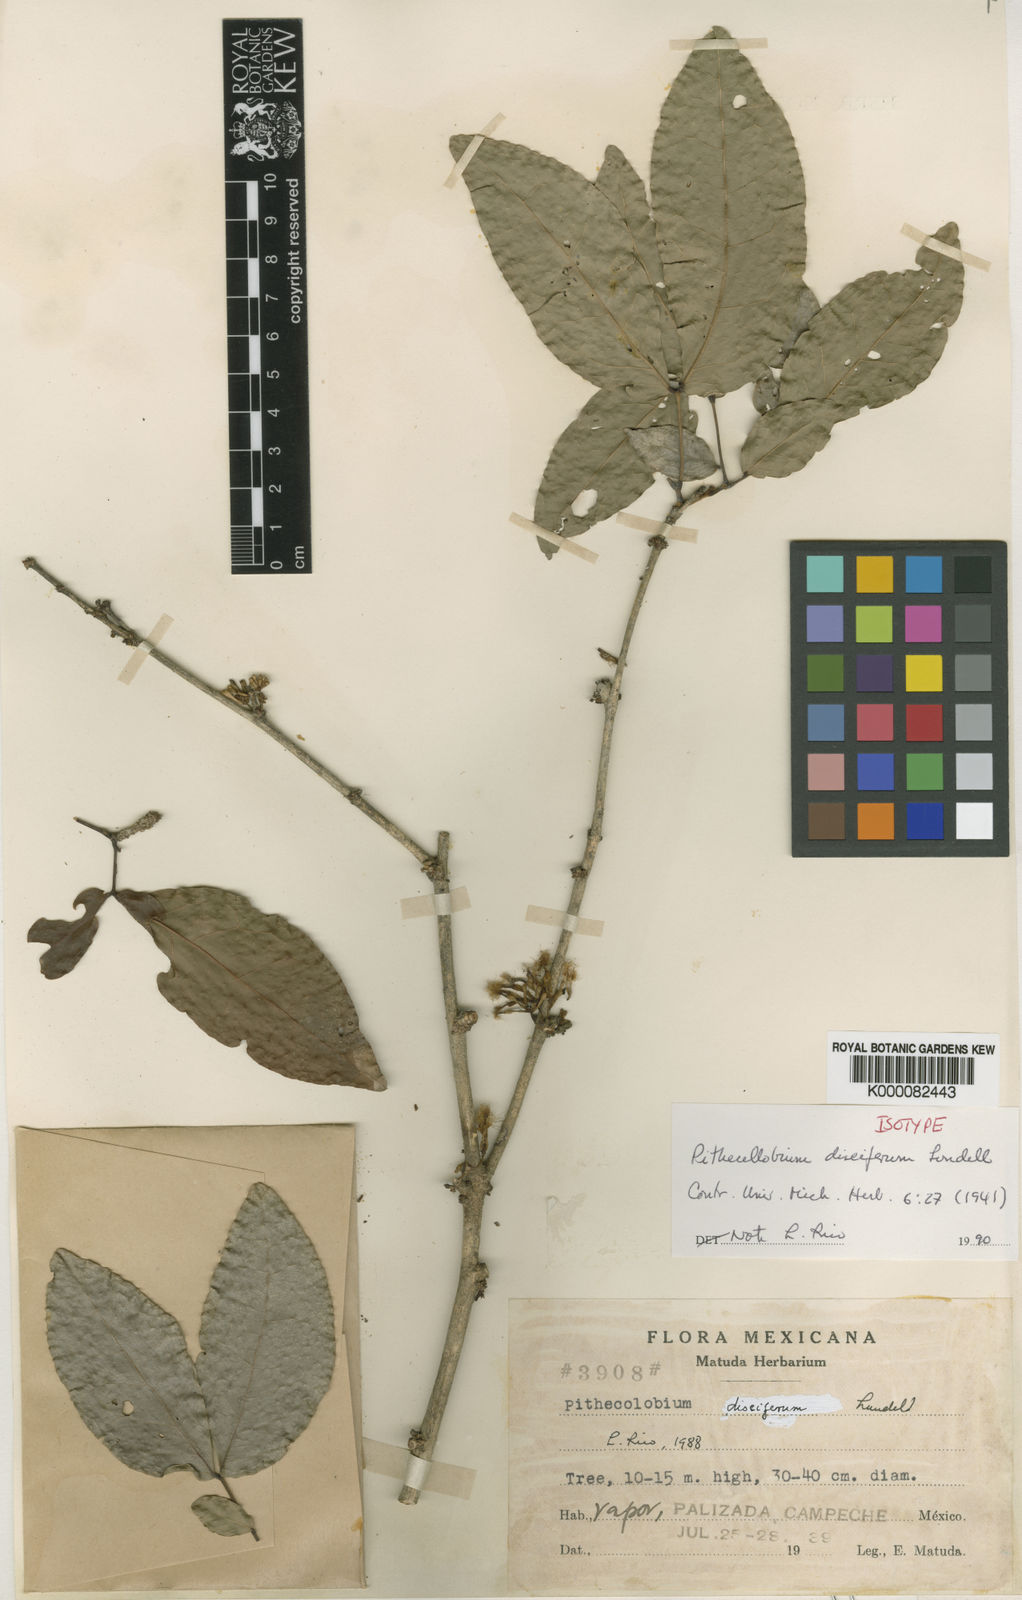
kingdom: Plantae
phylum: Tracheophyta
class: Magnoliopsida
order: Fabales
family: Fabaceae
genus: Zygia
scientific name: Zygia
